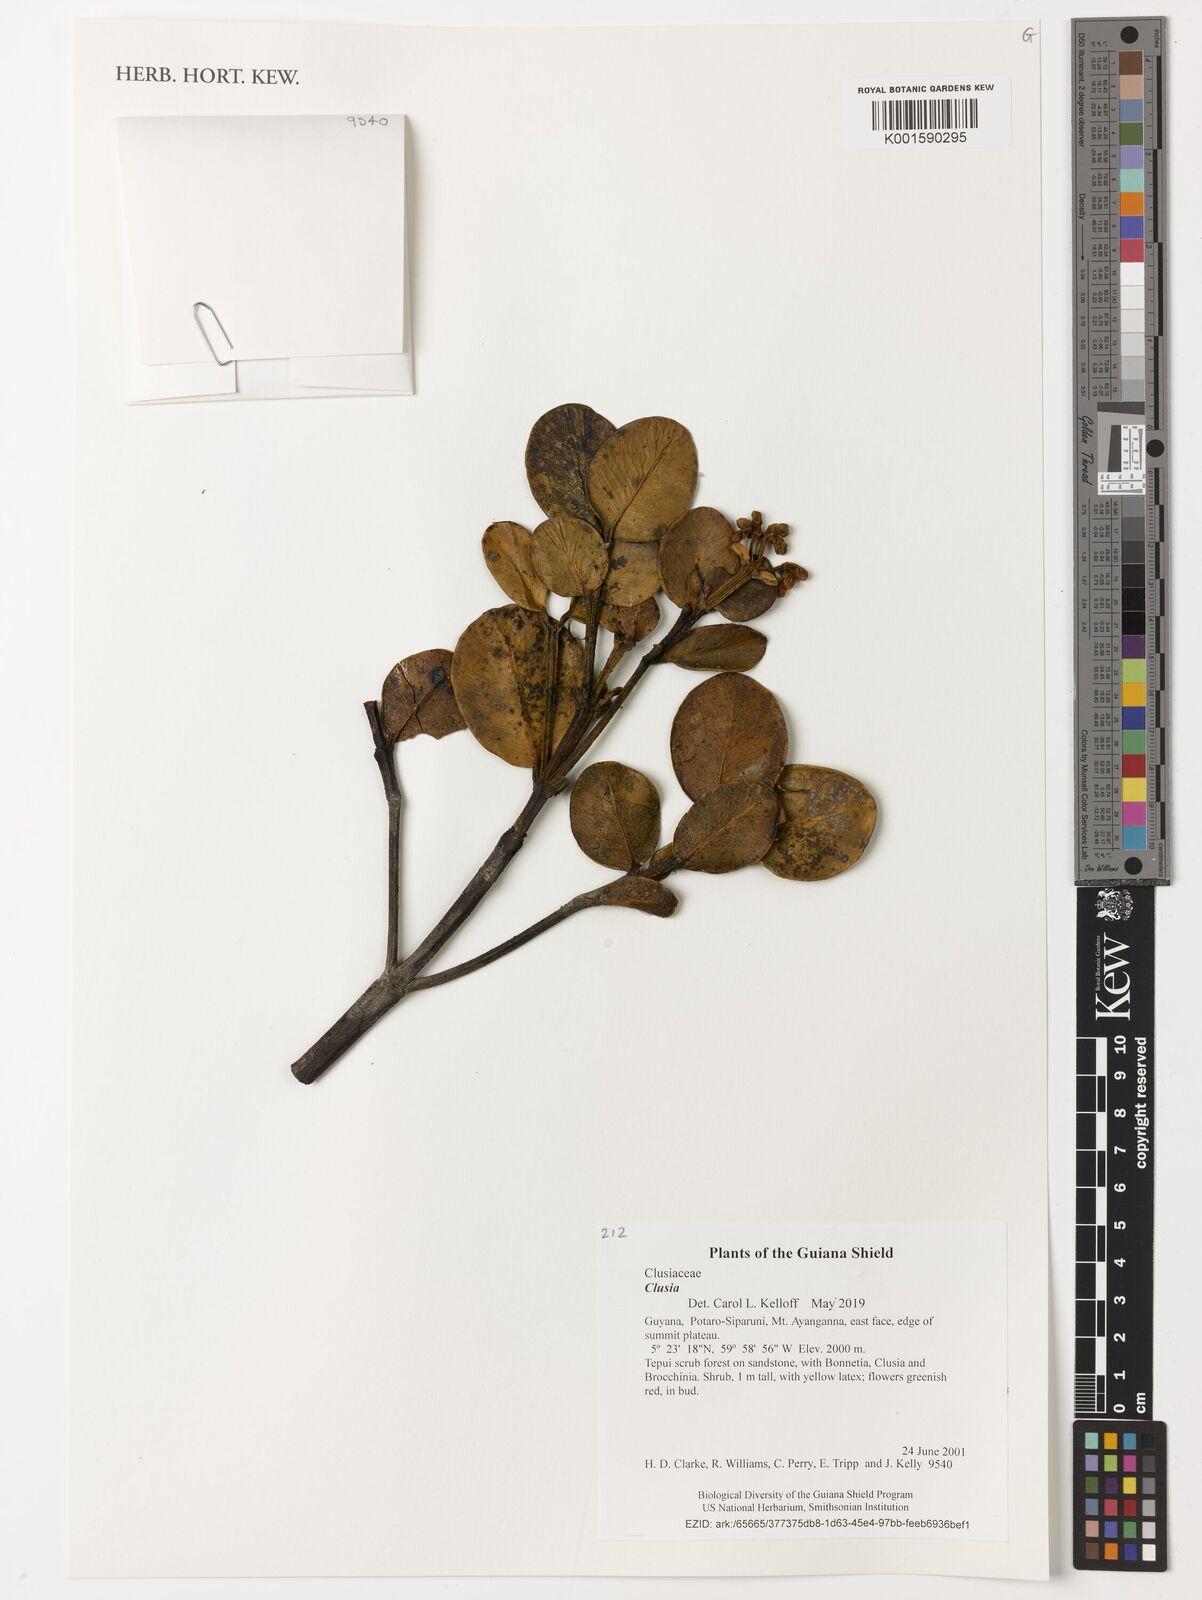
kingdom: Plantae
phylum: Tracheophyta
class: Magnoliopsida
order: Malpighiales
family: Clusiaceae
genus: Clusia
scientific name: Clusia
